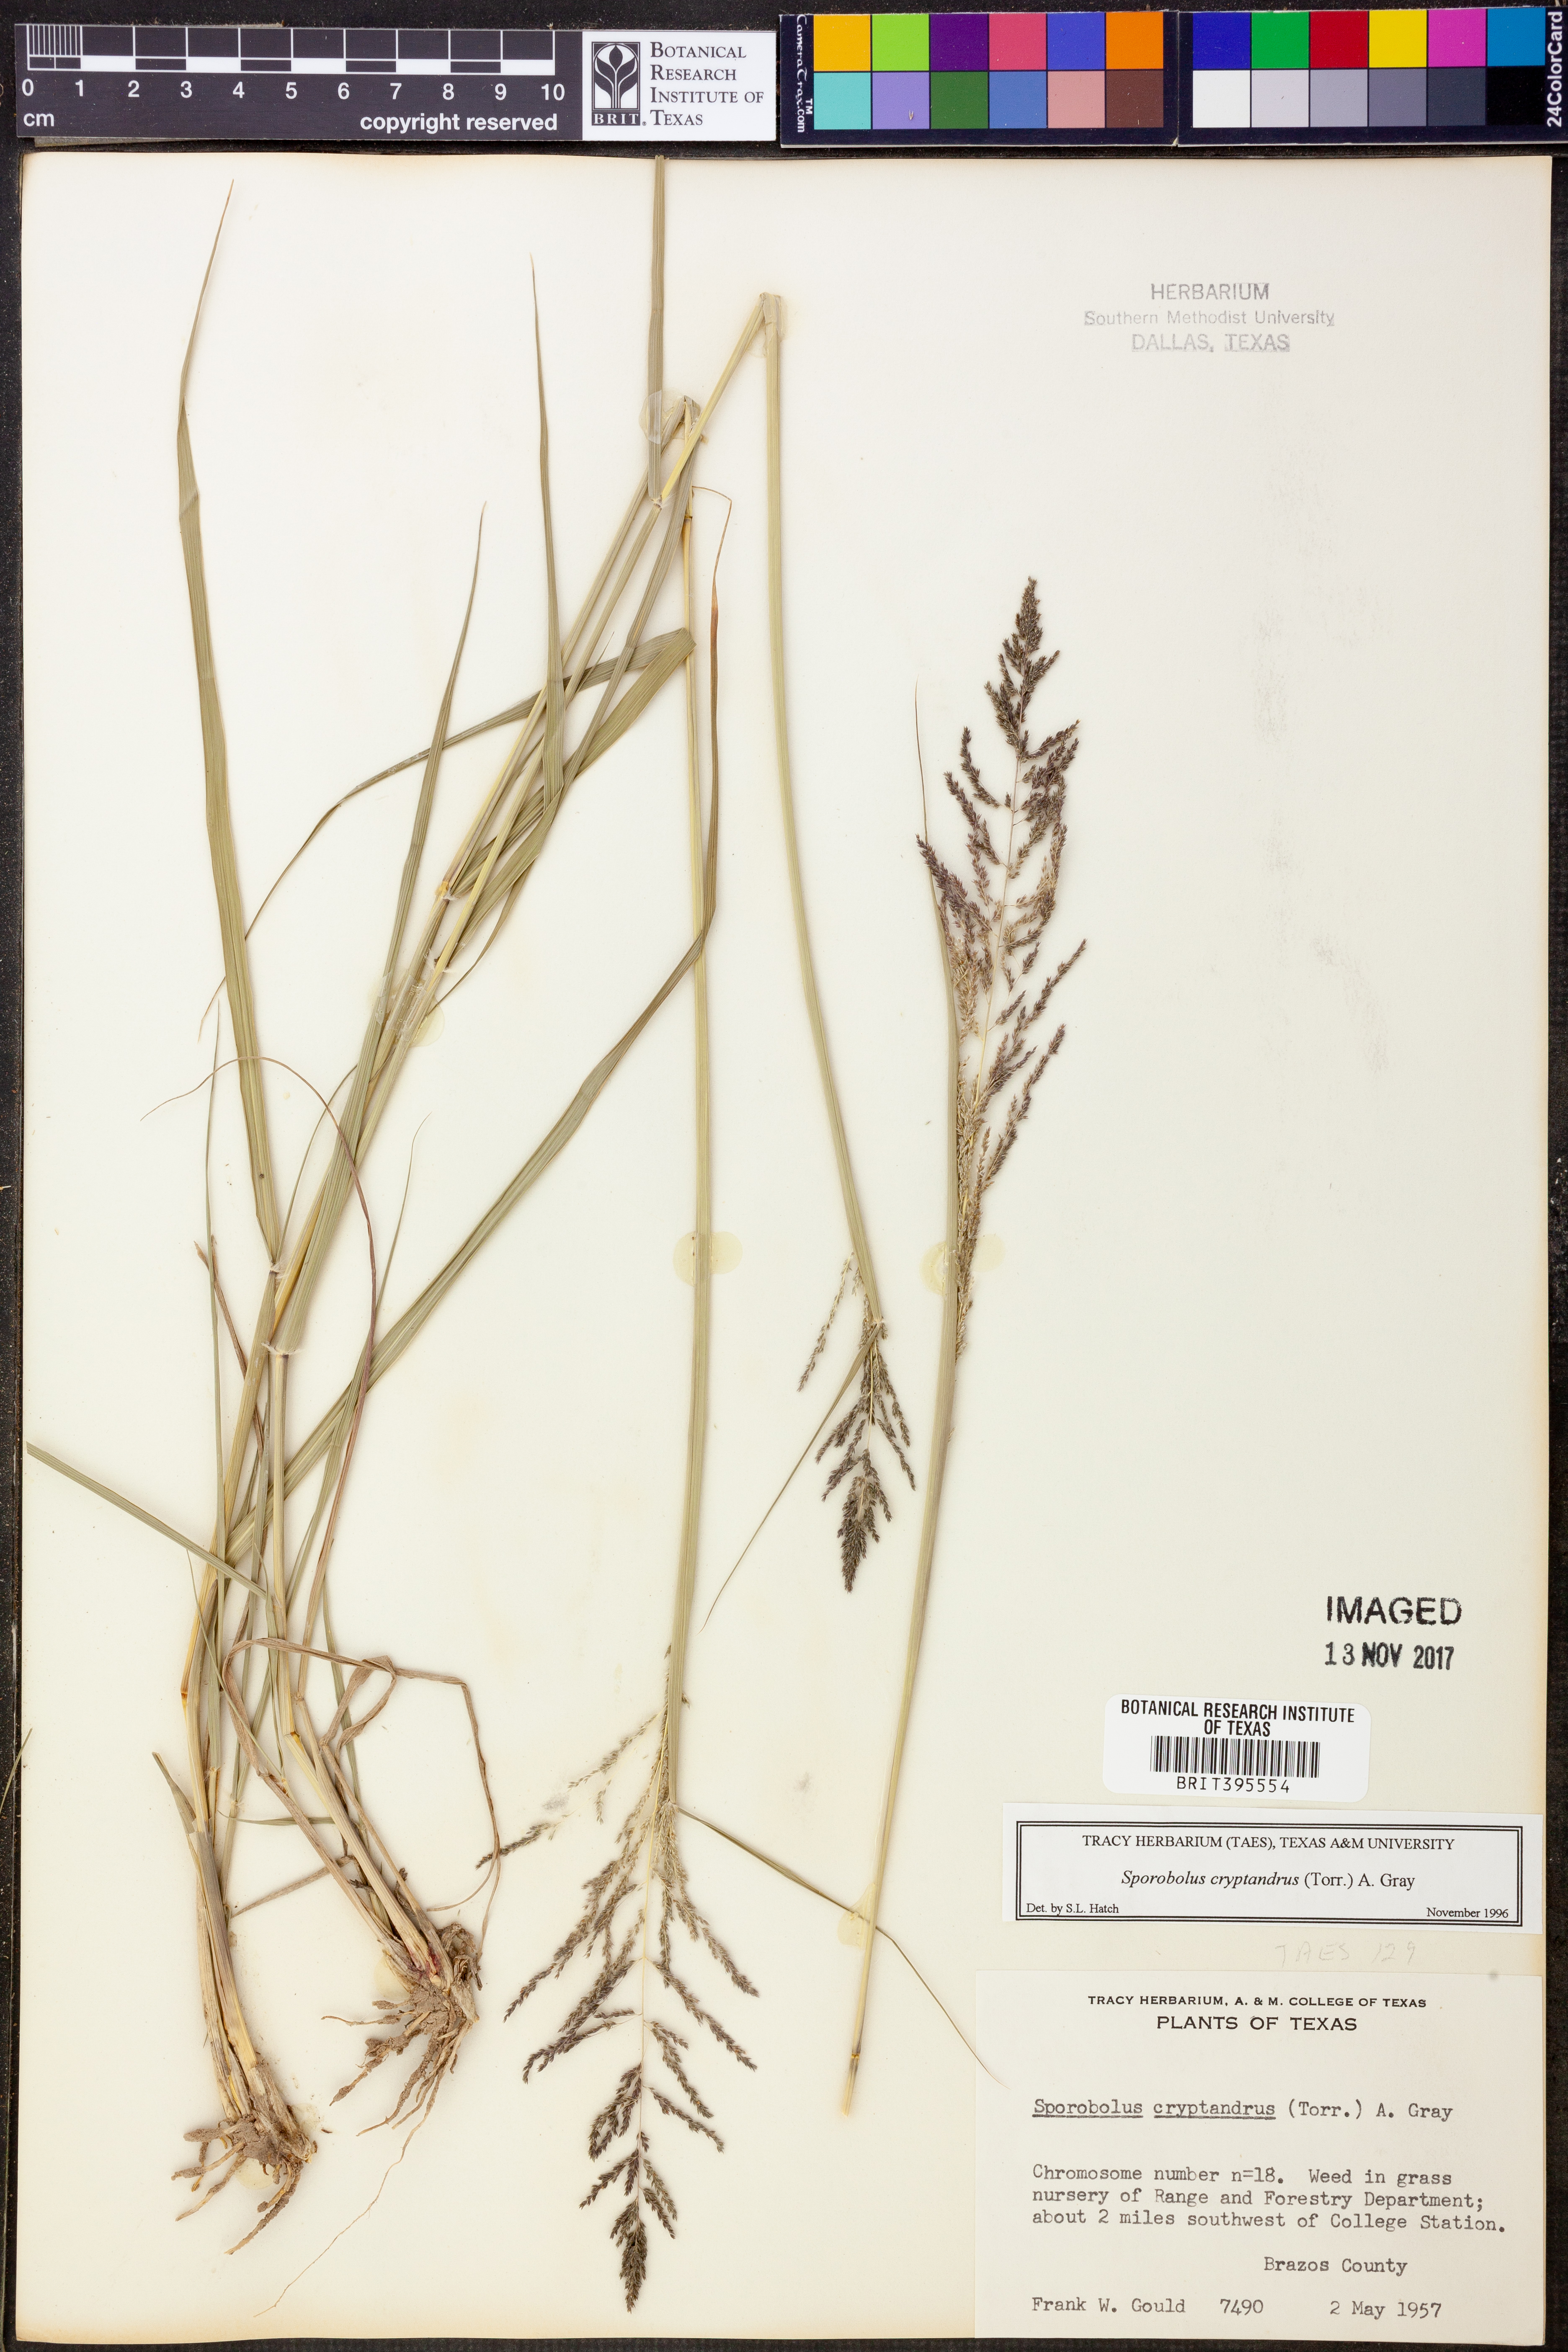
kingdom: Plantae
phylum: Tracheophyta
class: Liliopsida
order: Poales
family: Poaceae
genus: Sporobolus
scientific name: Sporobolus cryptandrus
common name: Sand dropseed
